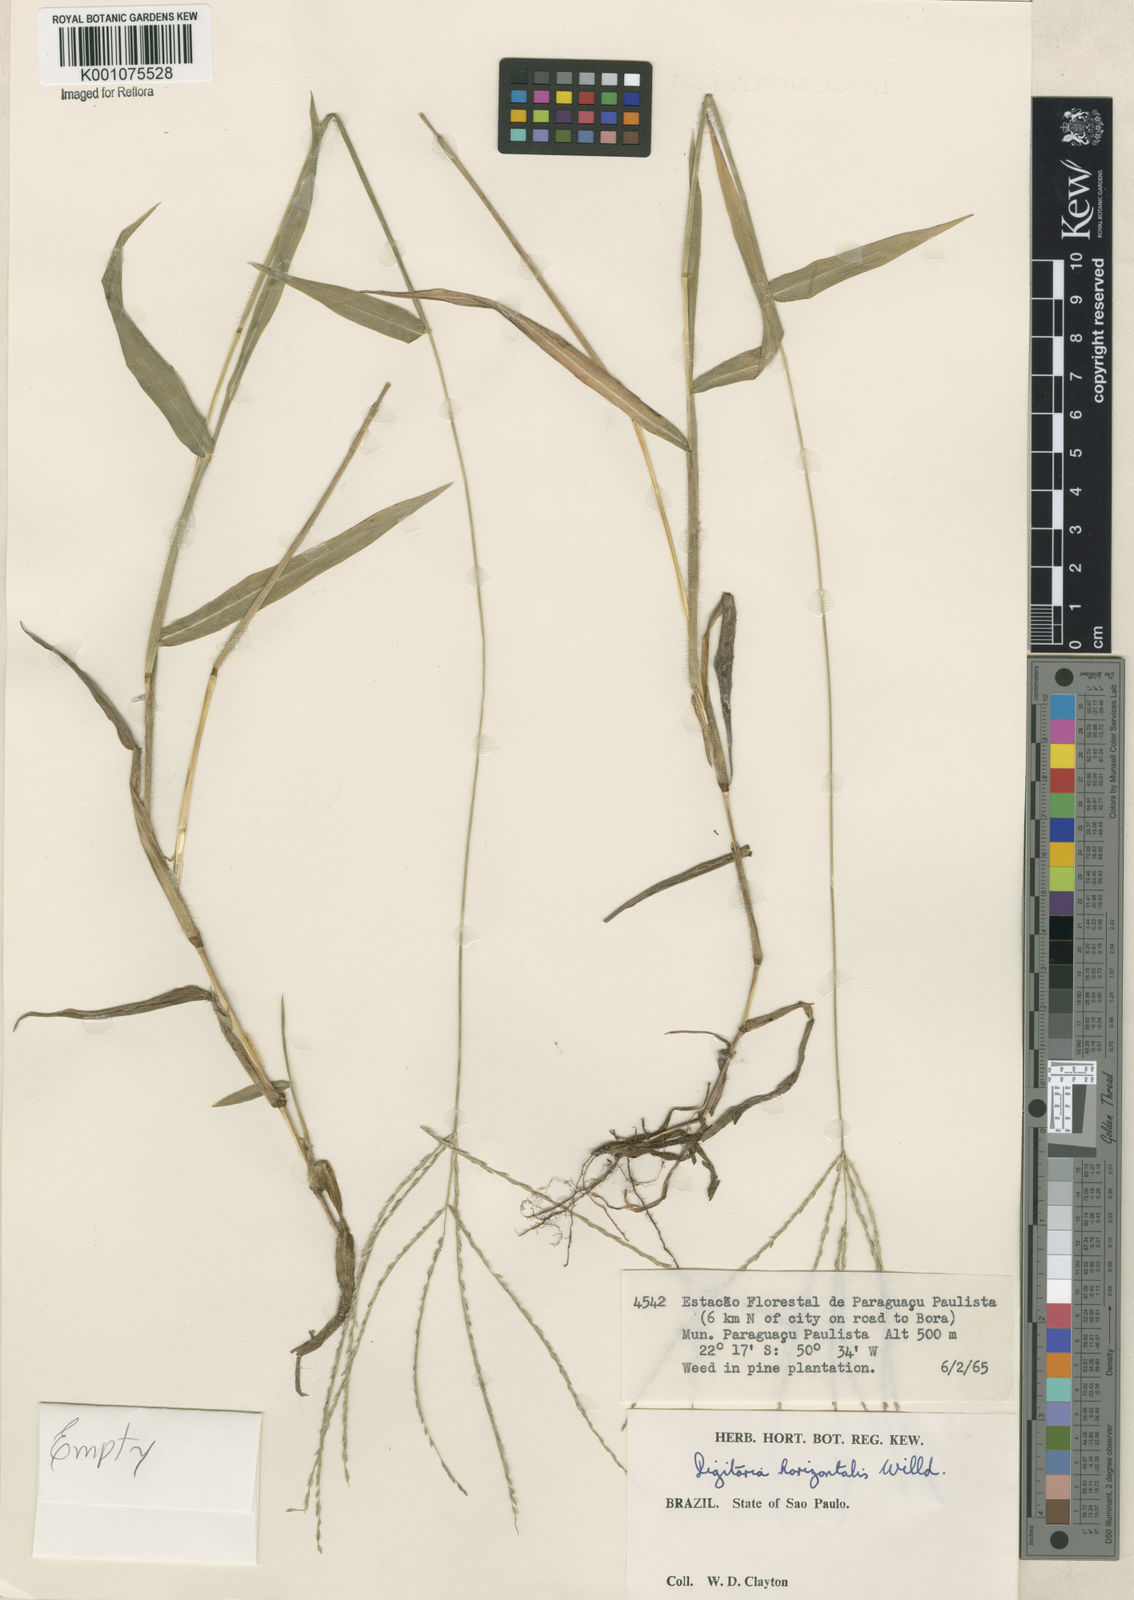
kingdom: Plantae
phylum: Tracheophyta
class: Liliopsida
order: Poales
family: Poaceae
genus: Digitaria
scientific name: Digitaria horizontalis
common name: Jamaican crabgrass
